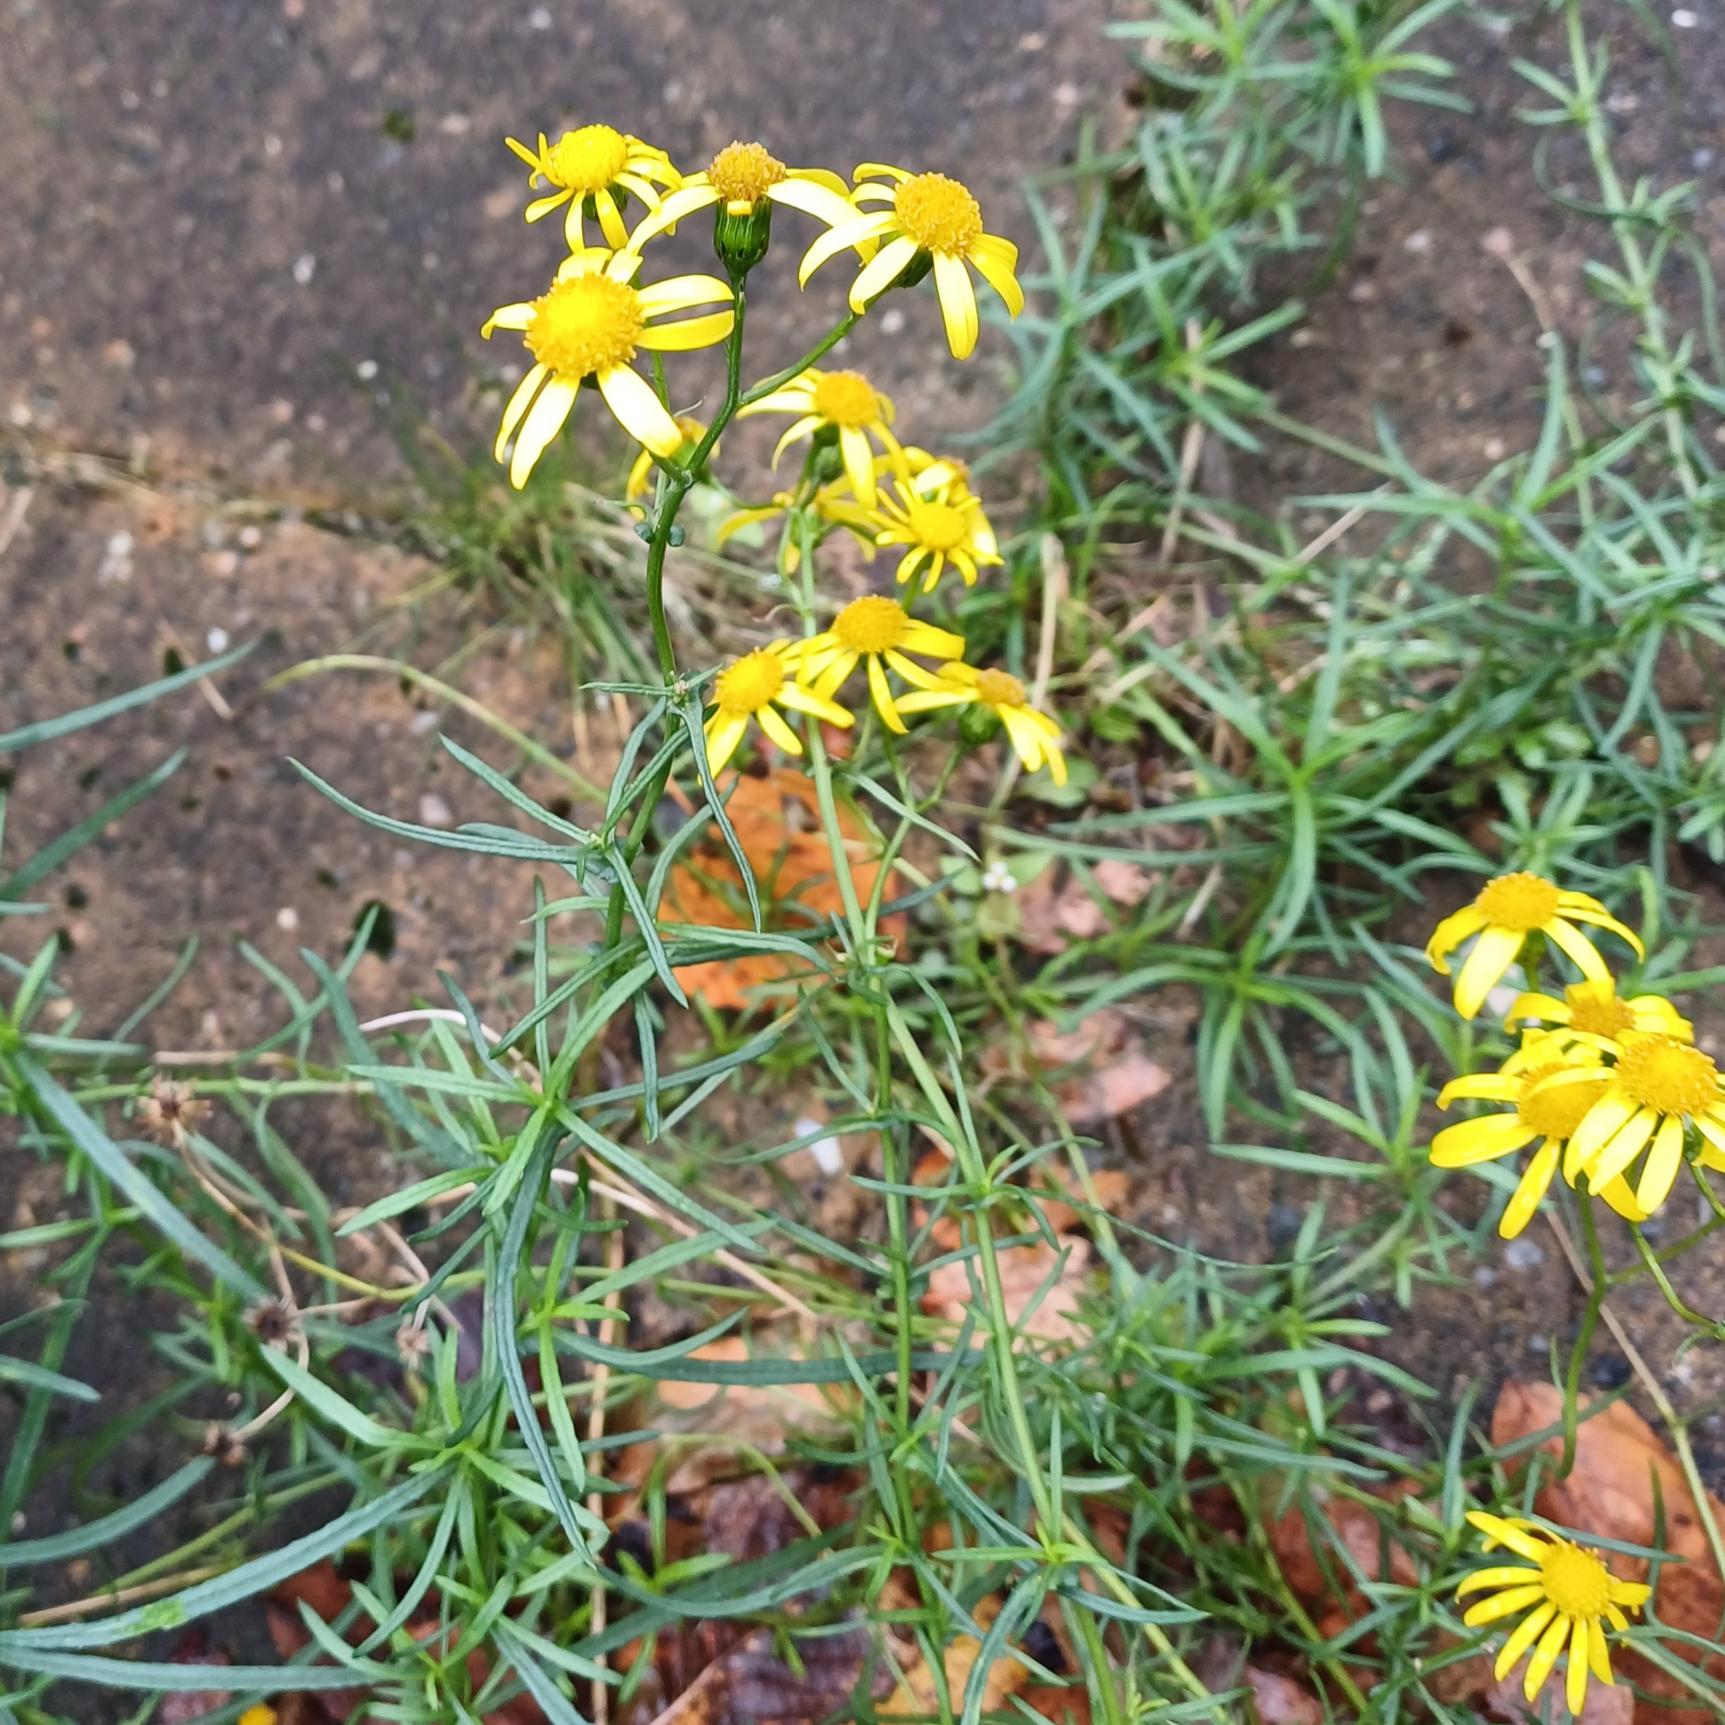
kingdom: Plantae
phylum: Tracheophyta
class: Magnoliopsida
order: Asterales
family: Asteraceae
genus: Senecio
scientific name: Senecio inaequidens
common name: Smalbladet brandbæger
